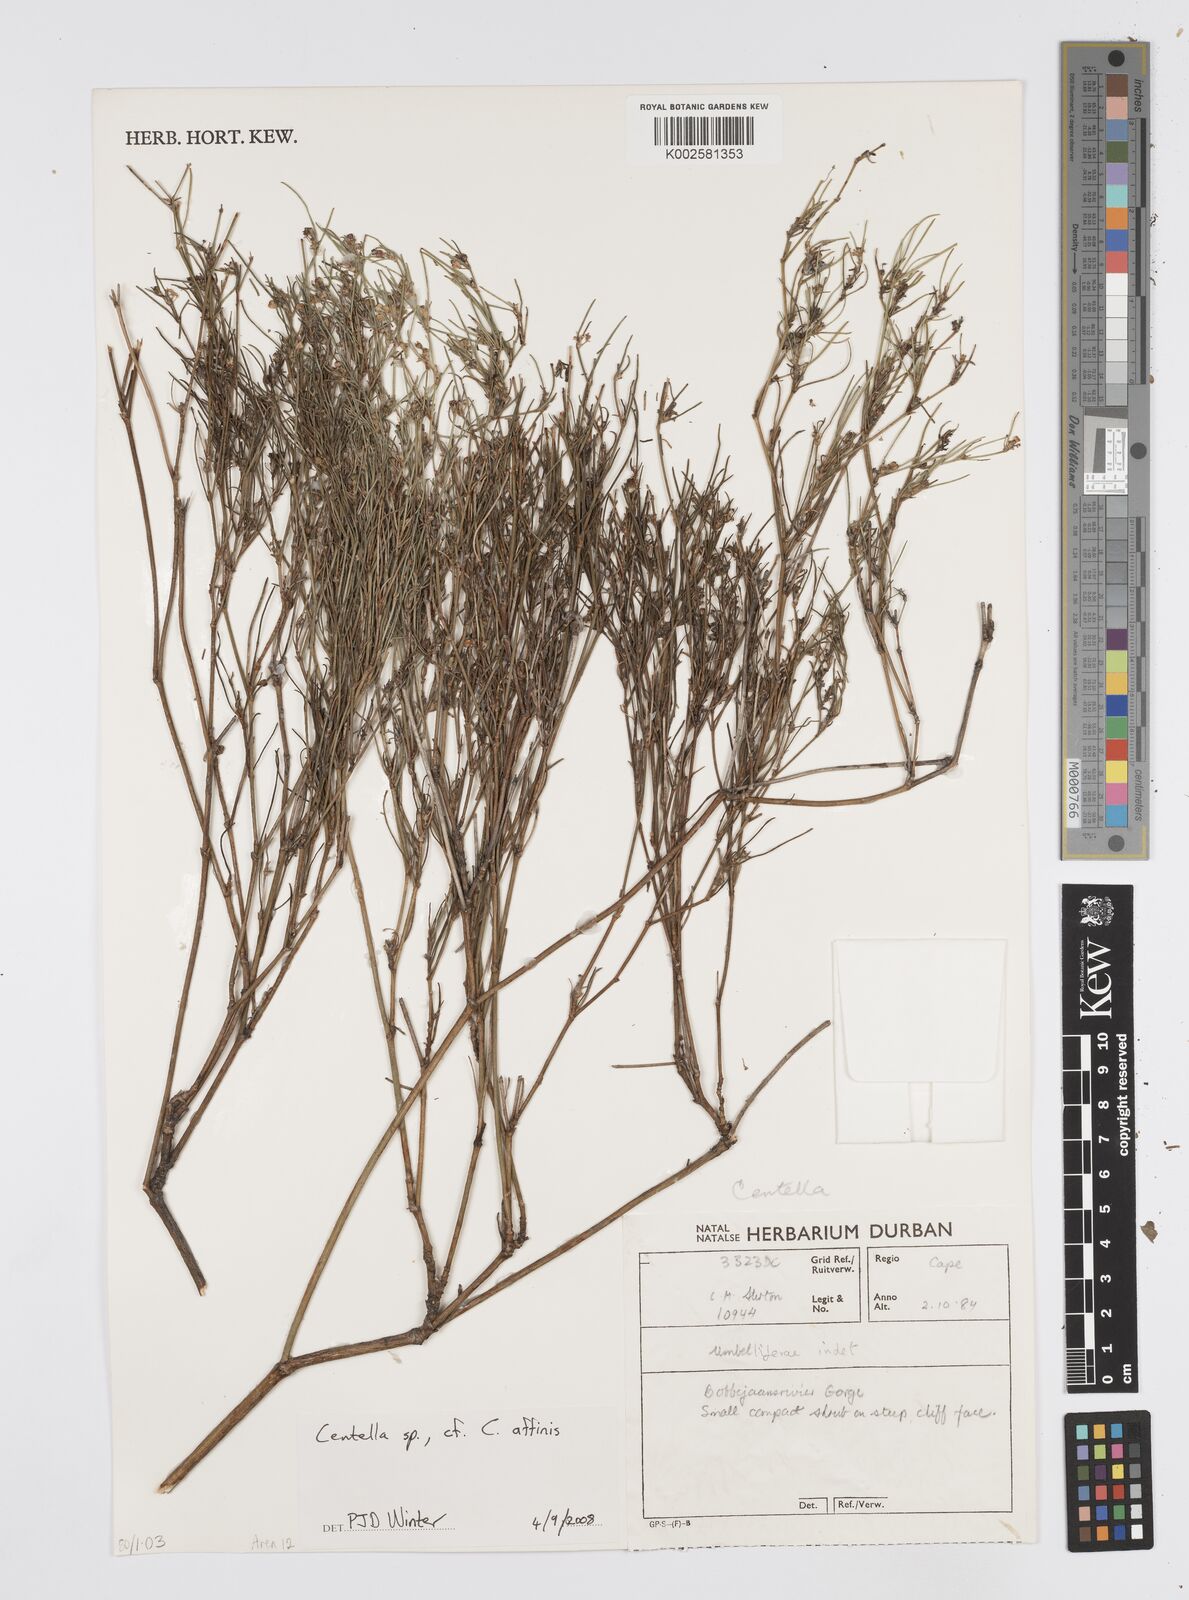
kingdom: Plantae
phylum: Tracheophyta
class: Magnoliopsida
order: Apiales
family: Apiaceae
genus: Centella
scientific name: Centella
